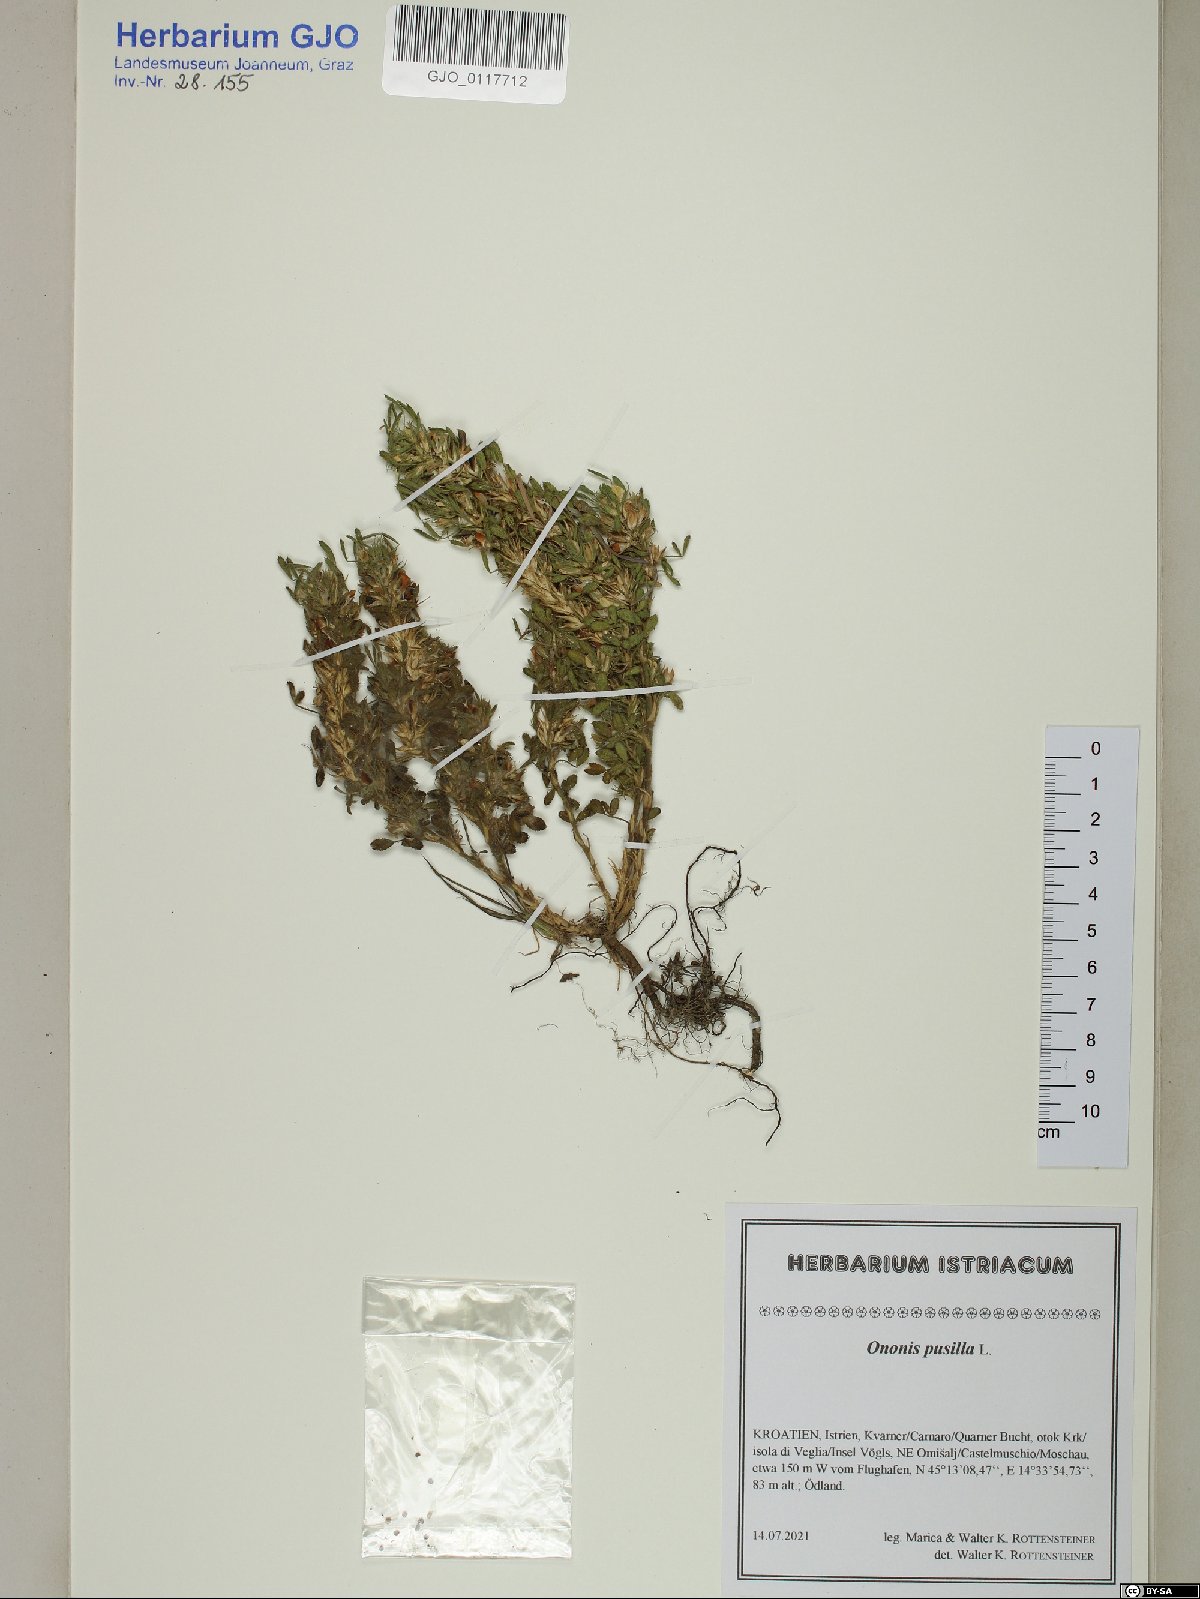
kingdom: Plantae
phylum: Tracheophyta
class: Magnoliopsida
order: Fabales
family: Fabaceae
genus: Ononis
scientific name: Ononis pusilla
